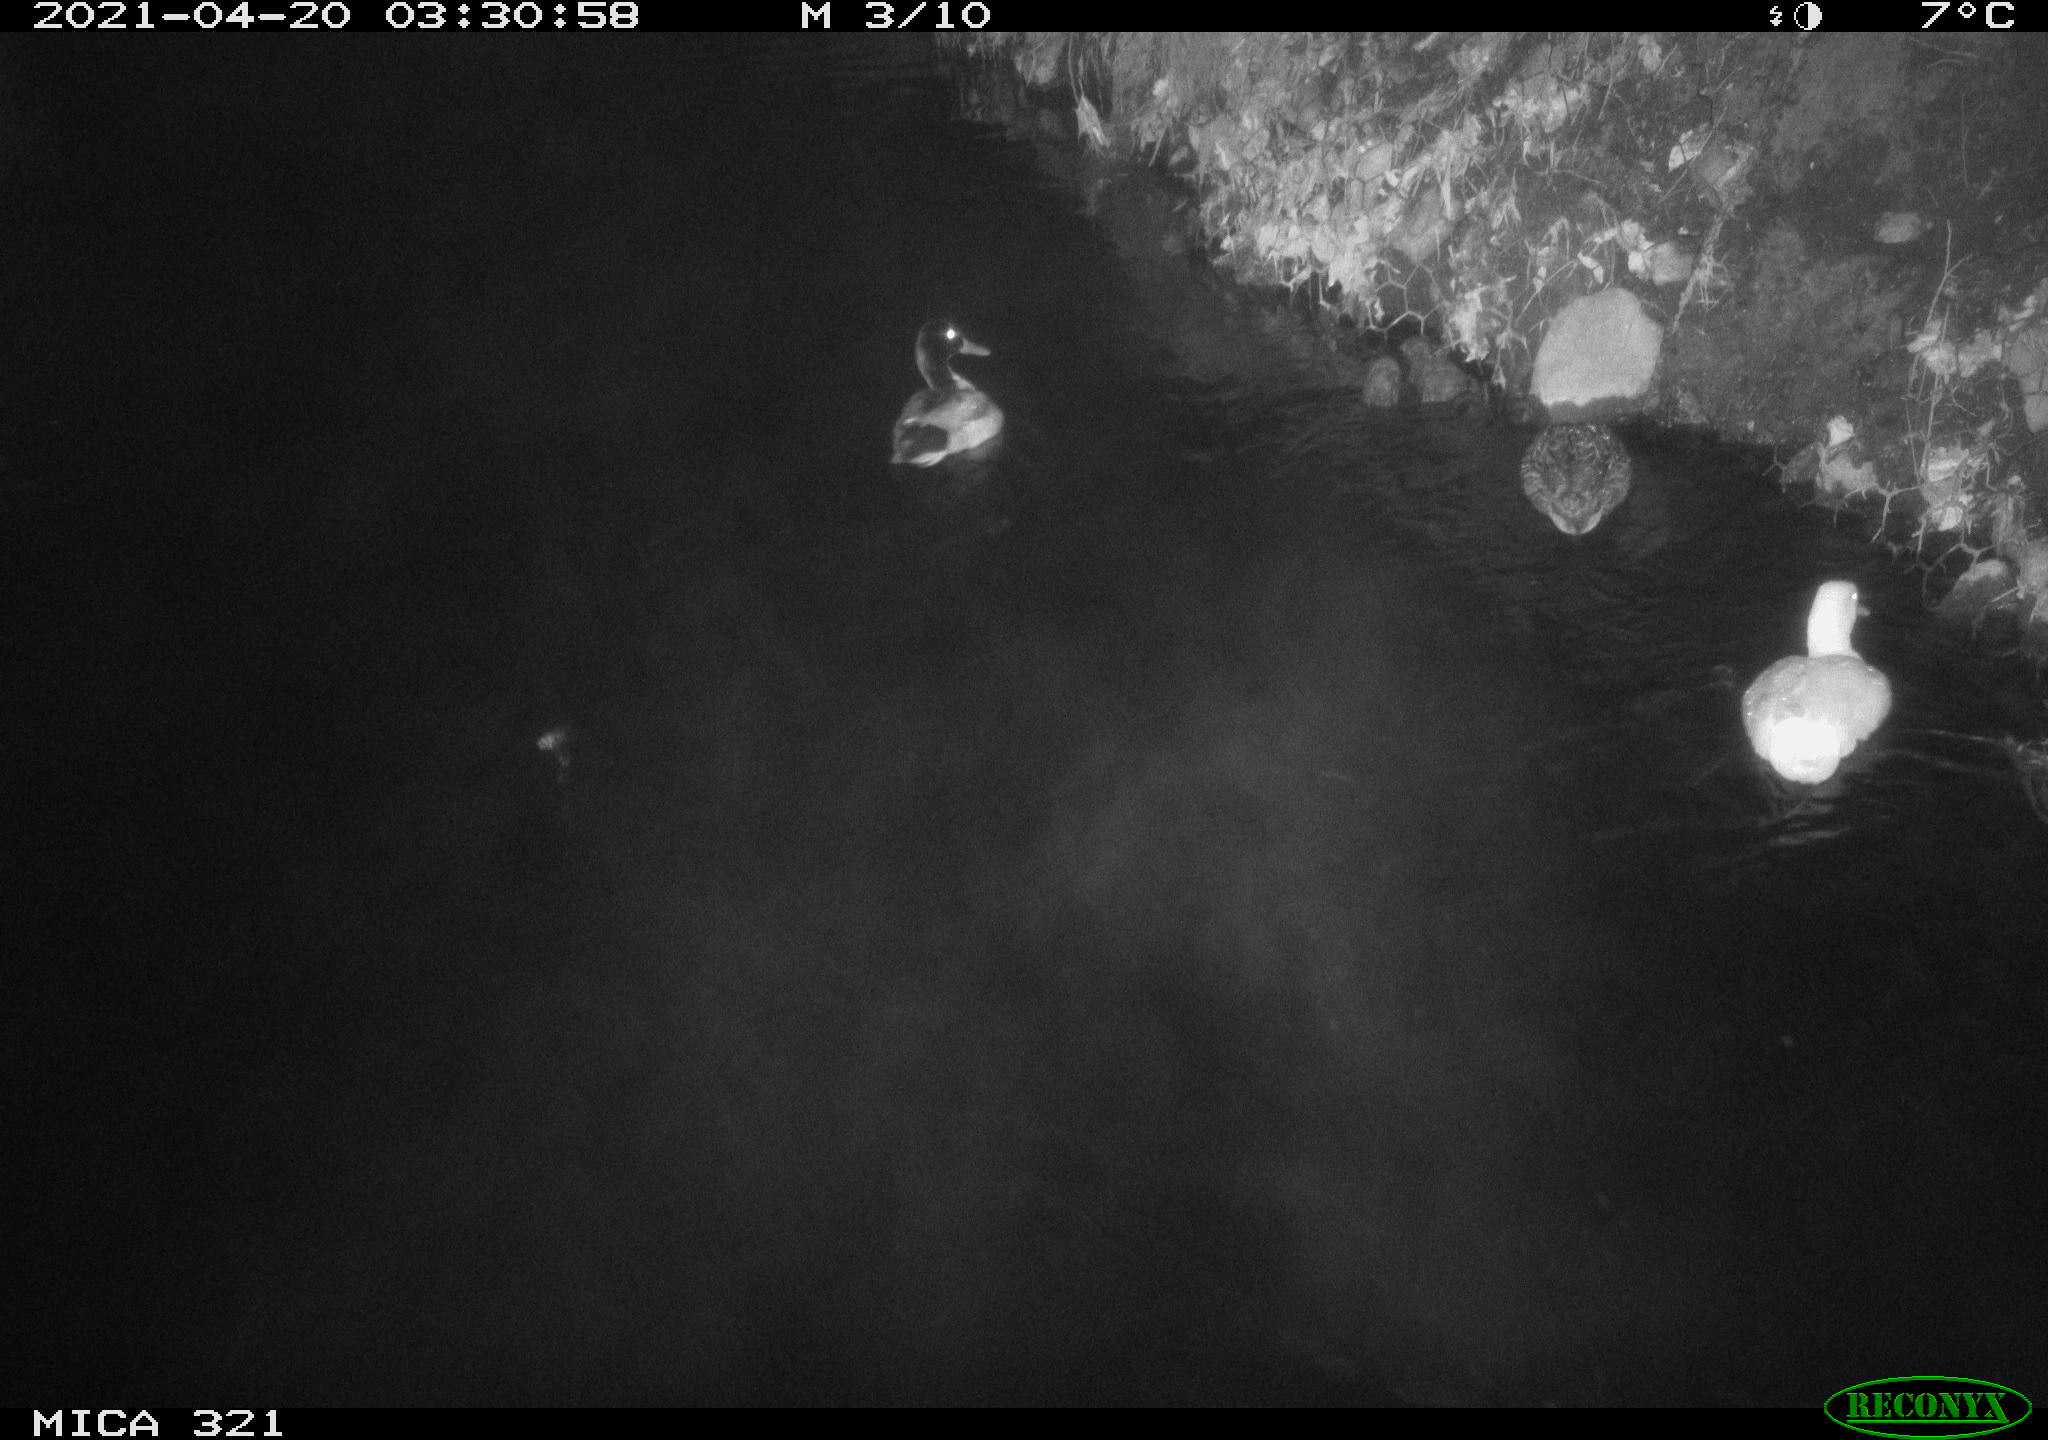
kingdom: Animalia
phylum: Chordata
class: Aves
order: Anseriformes
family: Anatidae
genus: Anas
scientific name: Anas
